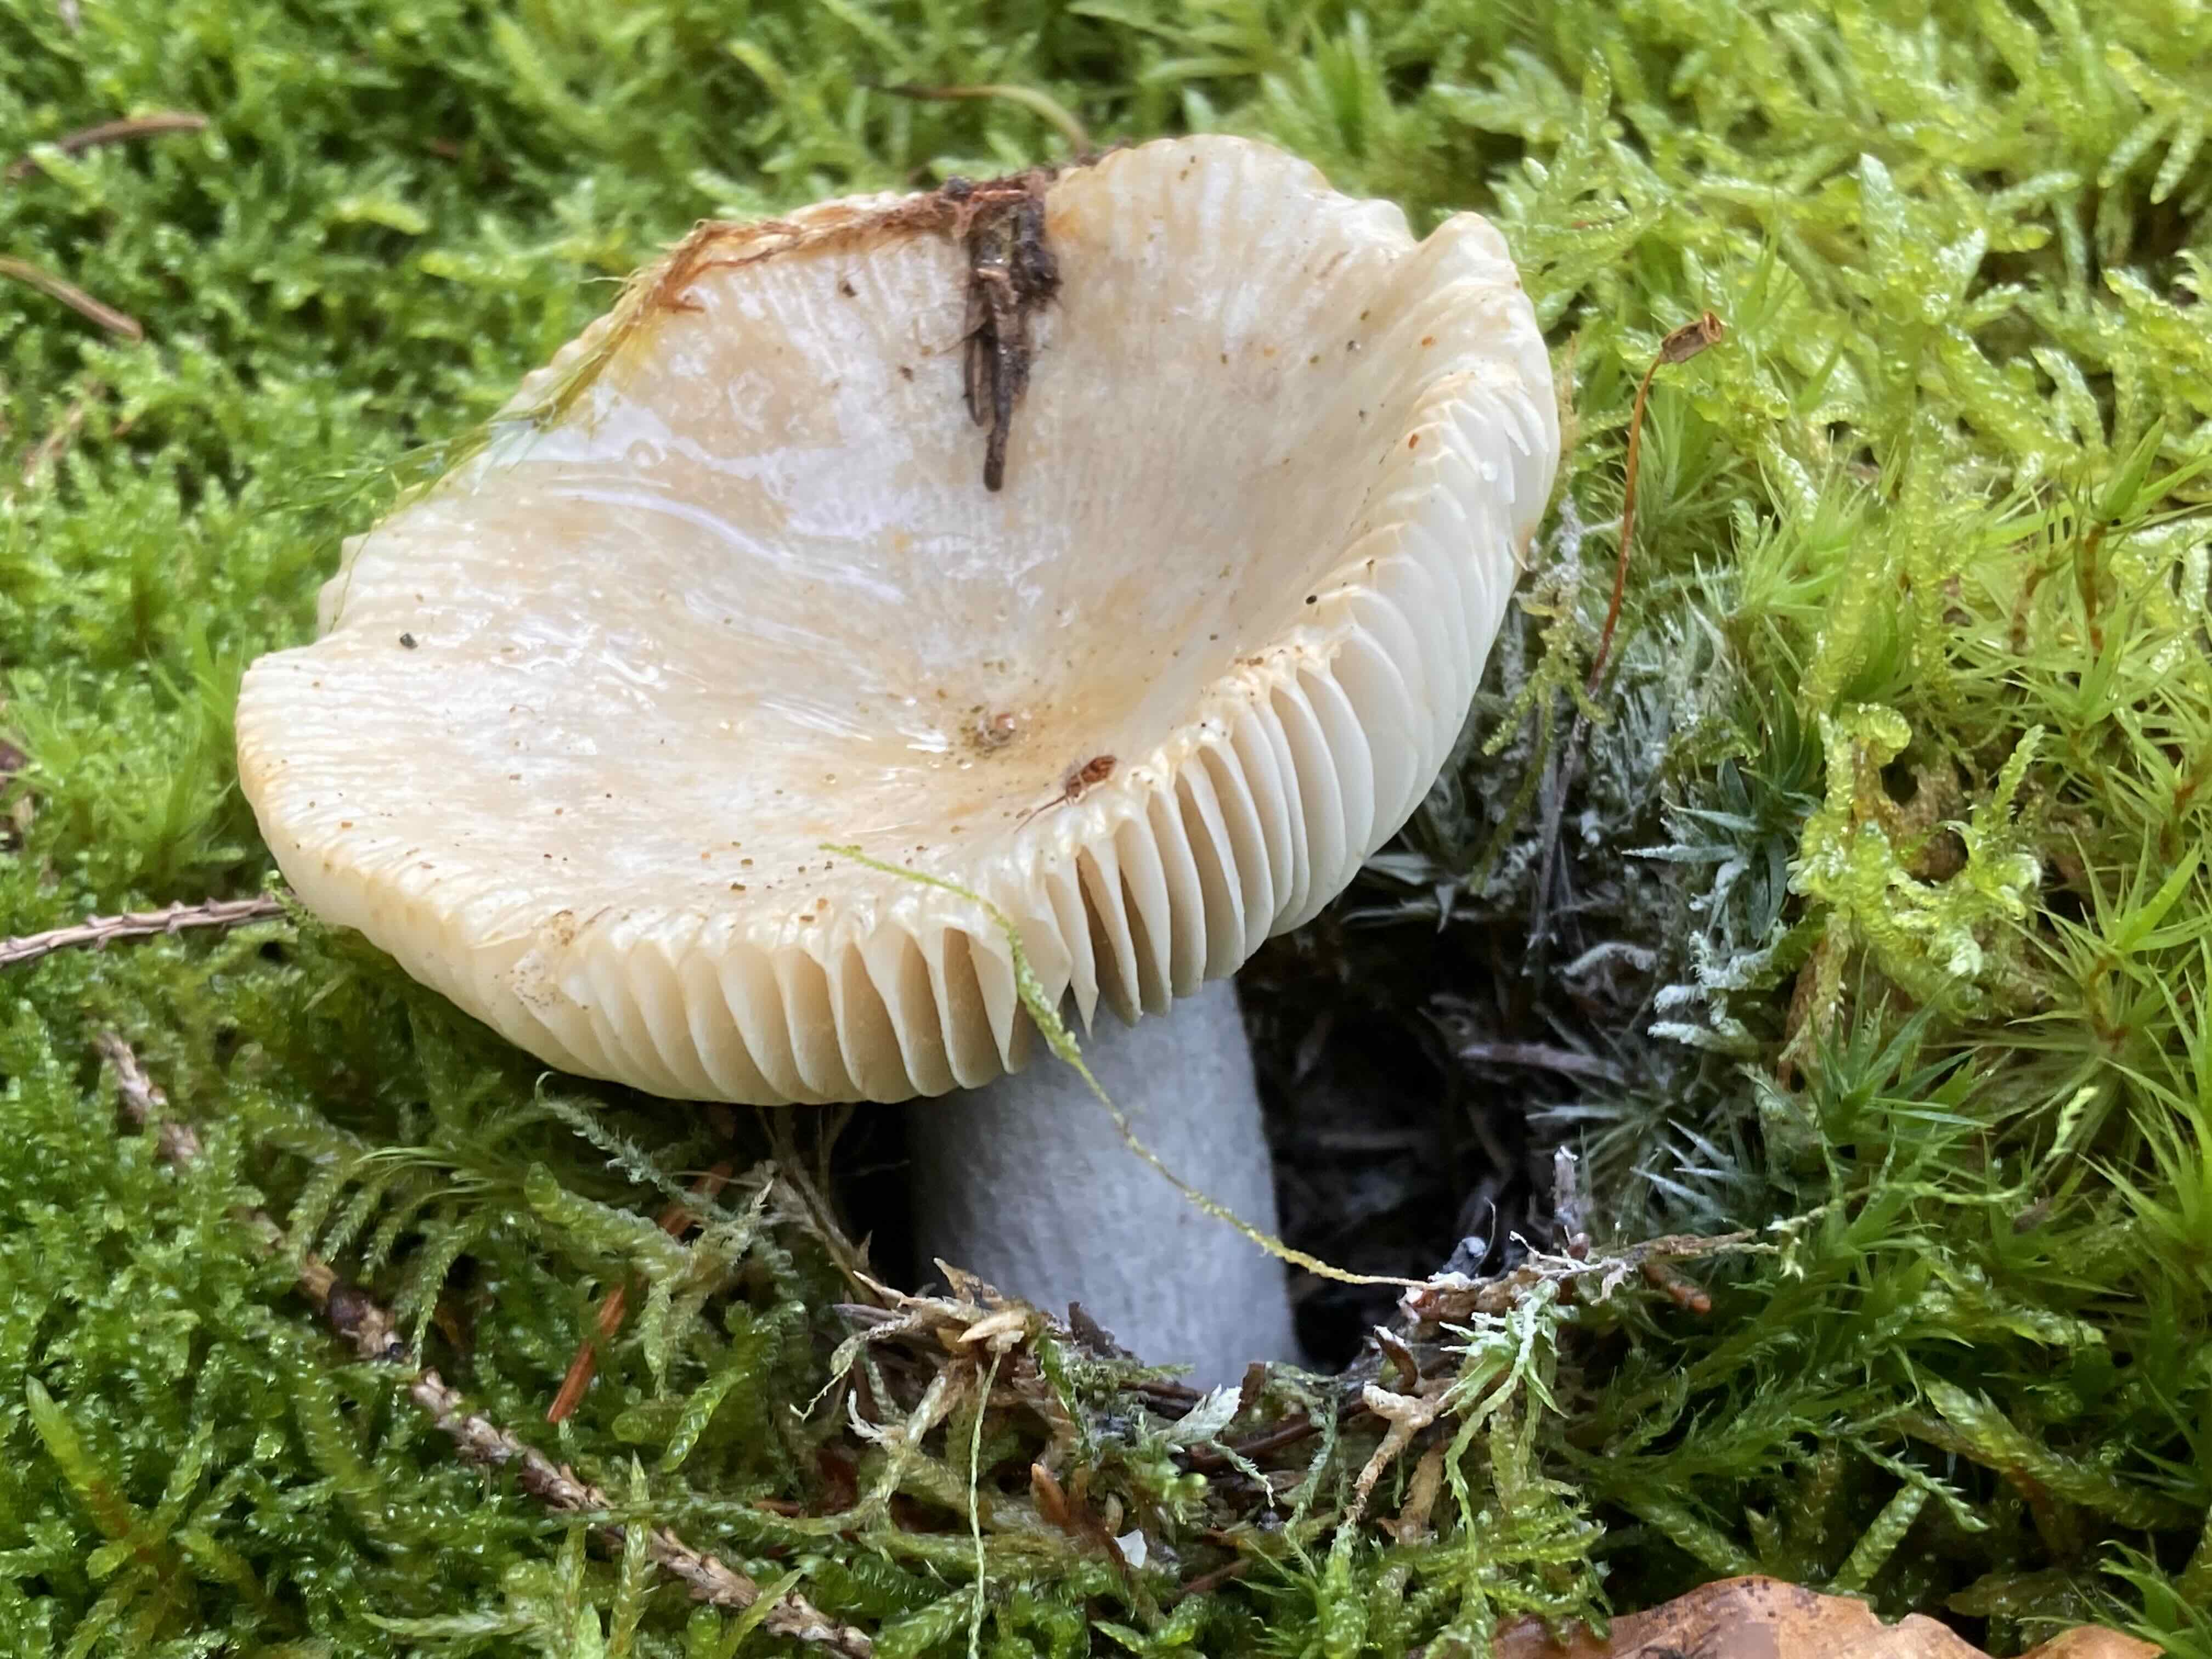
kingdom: Fungi
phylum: Basidiomycota
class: Agaricomycetes
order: Russulales
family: Russulaceae
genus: Russula
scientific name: Russula
